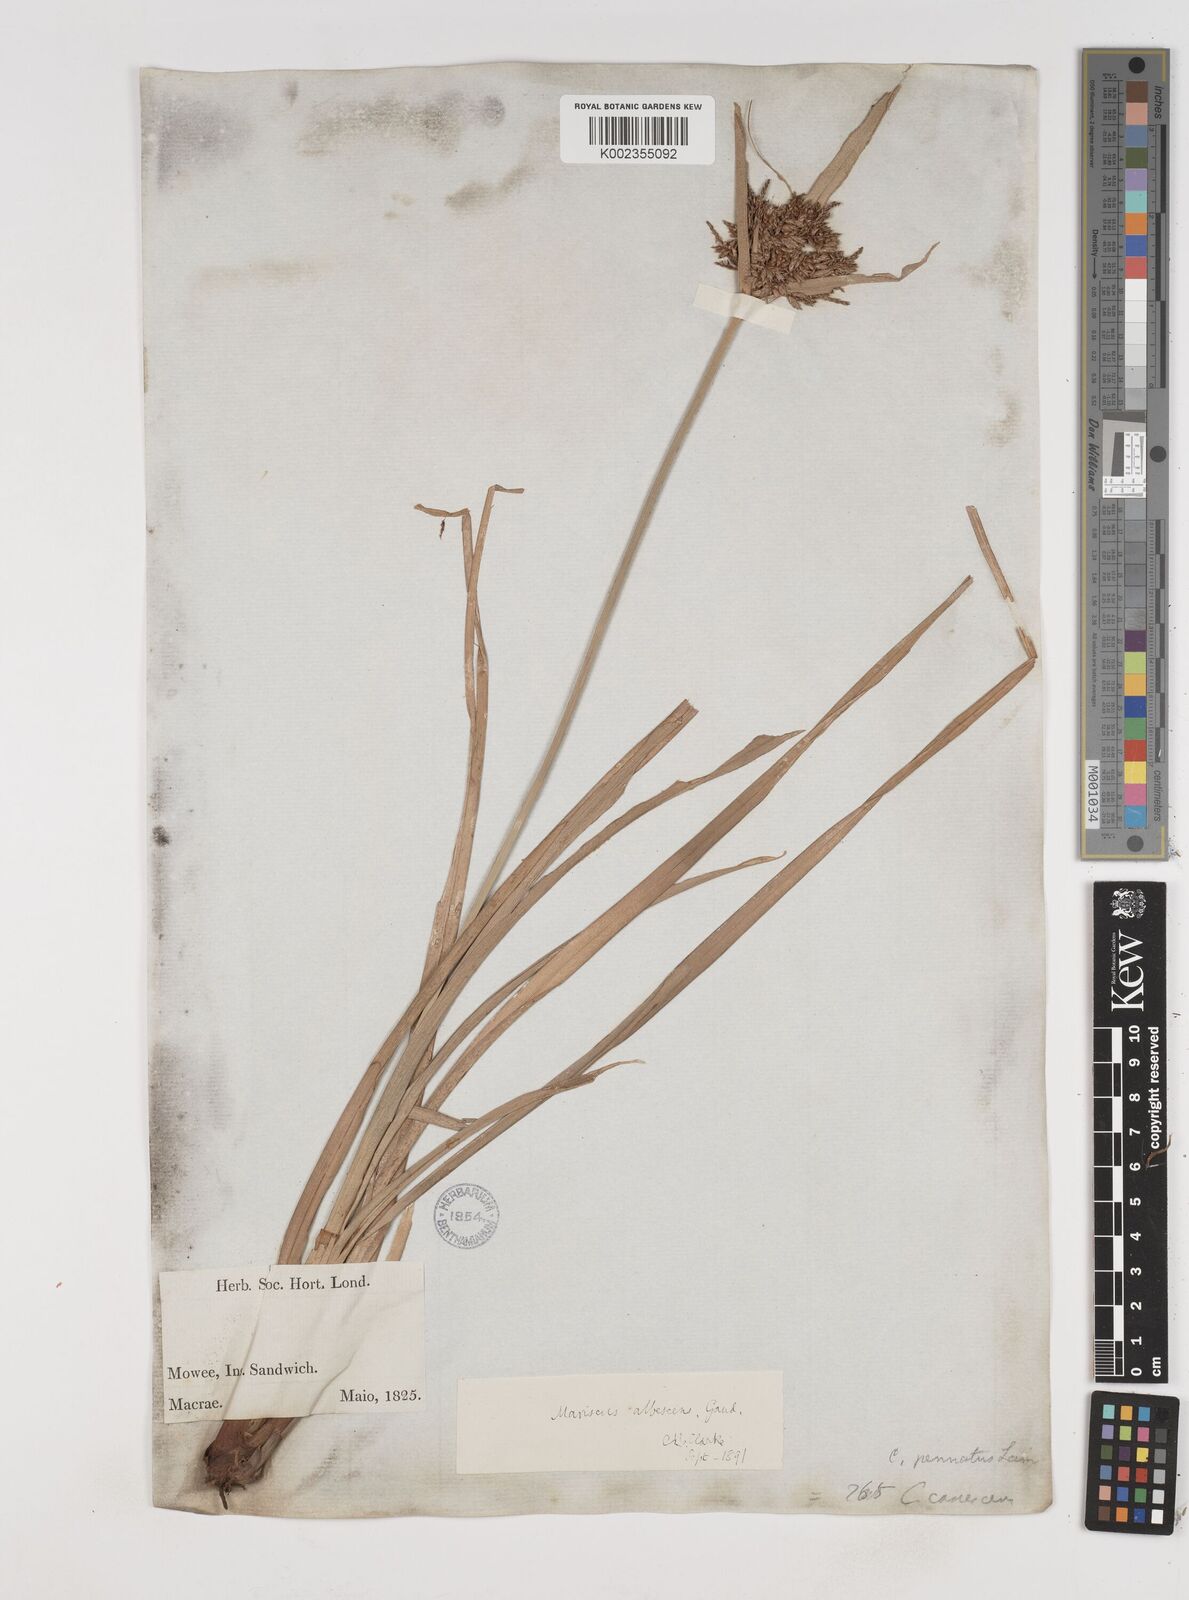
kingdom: Plantae
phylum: Tracheophyta
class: Liliopsida
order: Poales
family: Cyperaceae
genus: Cyperus
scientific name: Cyperus javanicus
